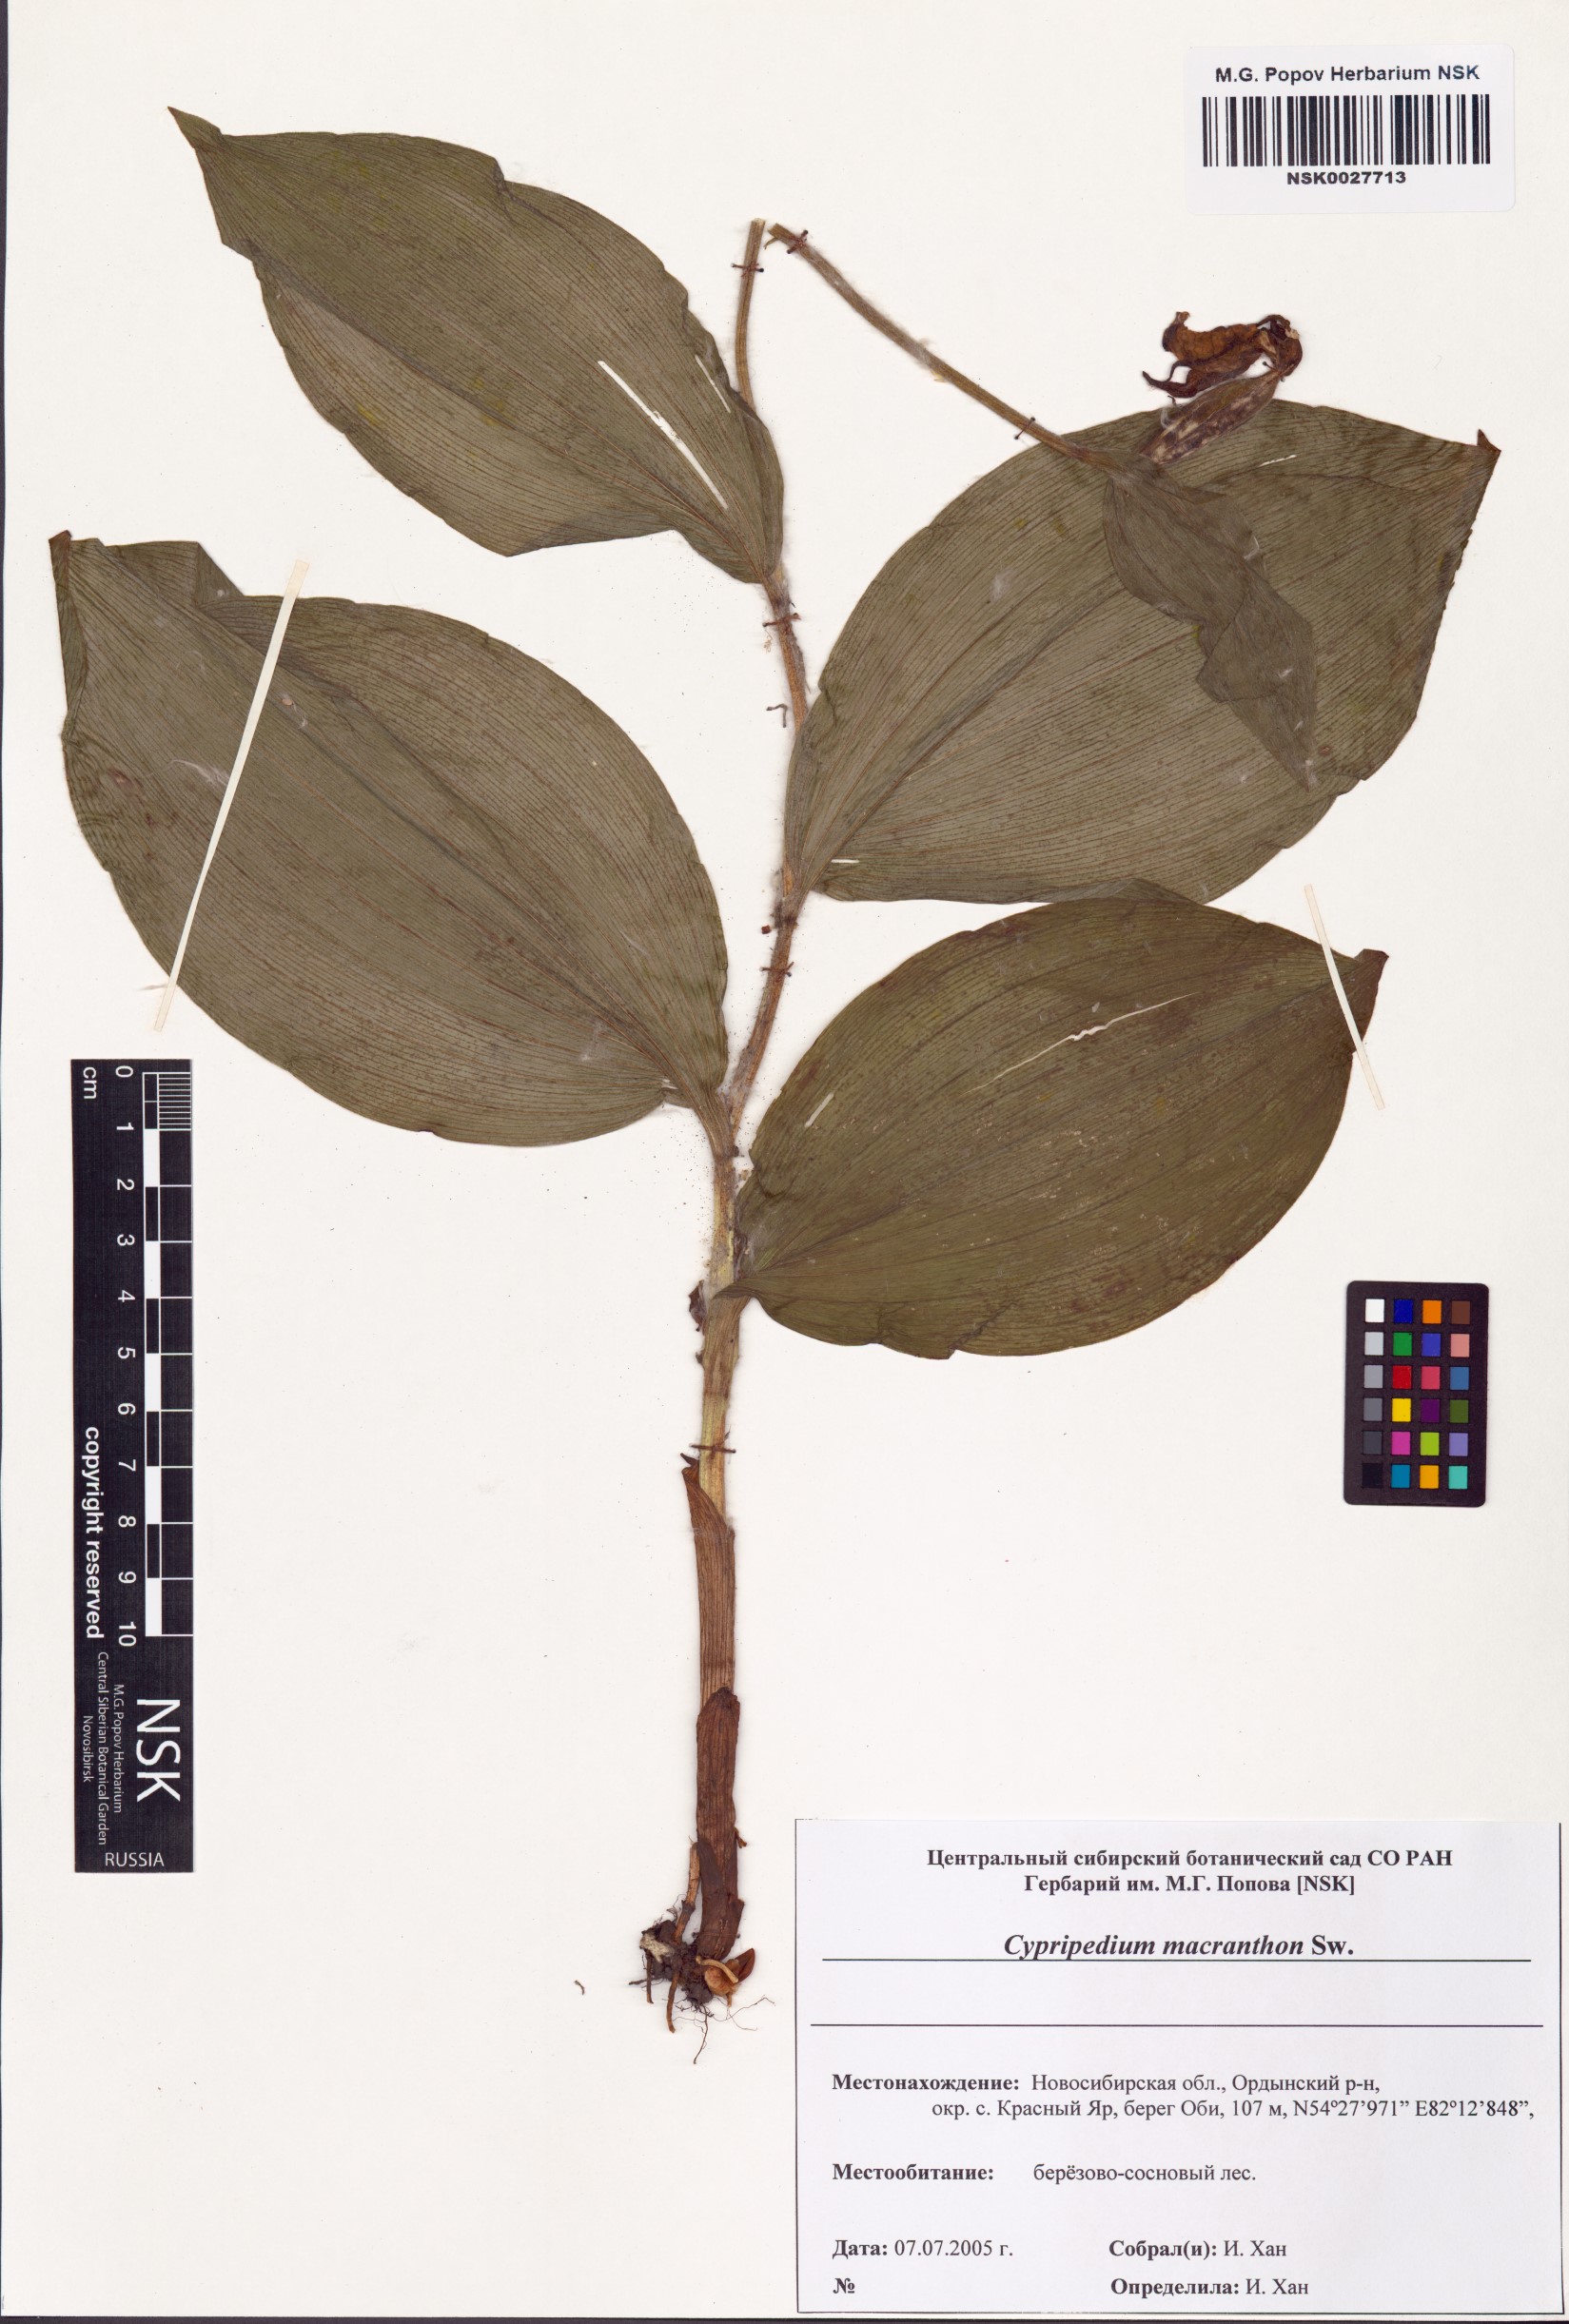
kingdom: Plantae
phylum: Tracheophyta
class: Liliopsida
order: Asparagales
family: Orchidaceae
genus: Cypripedium
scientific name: Cypripedium macranthos
